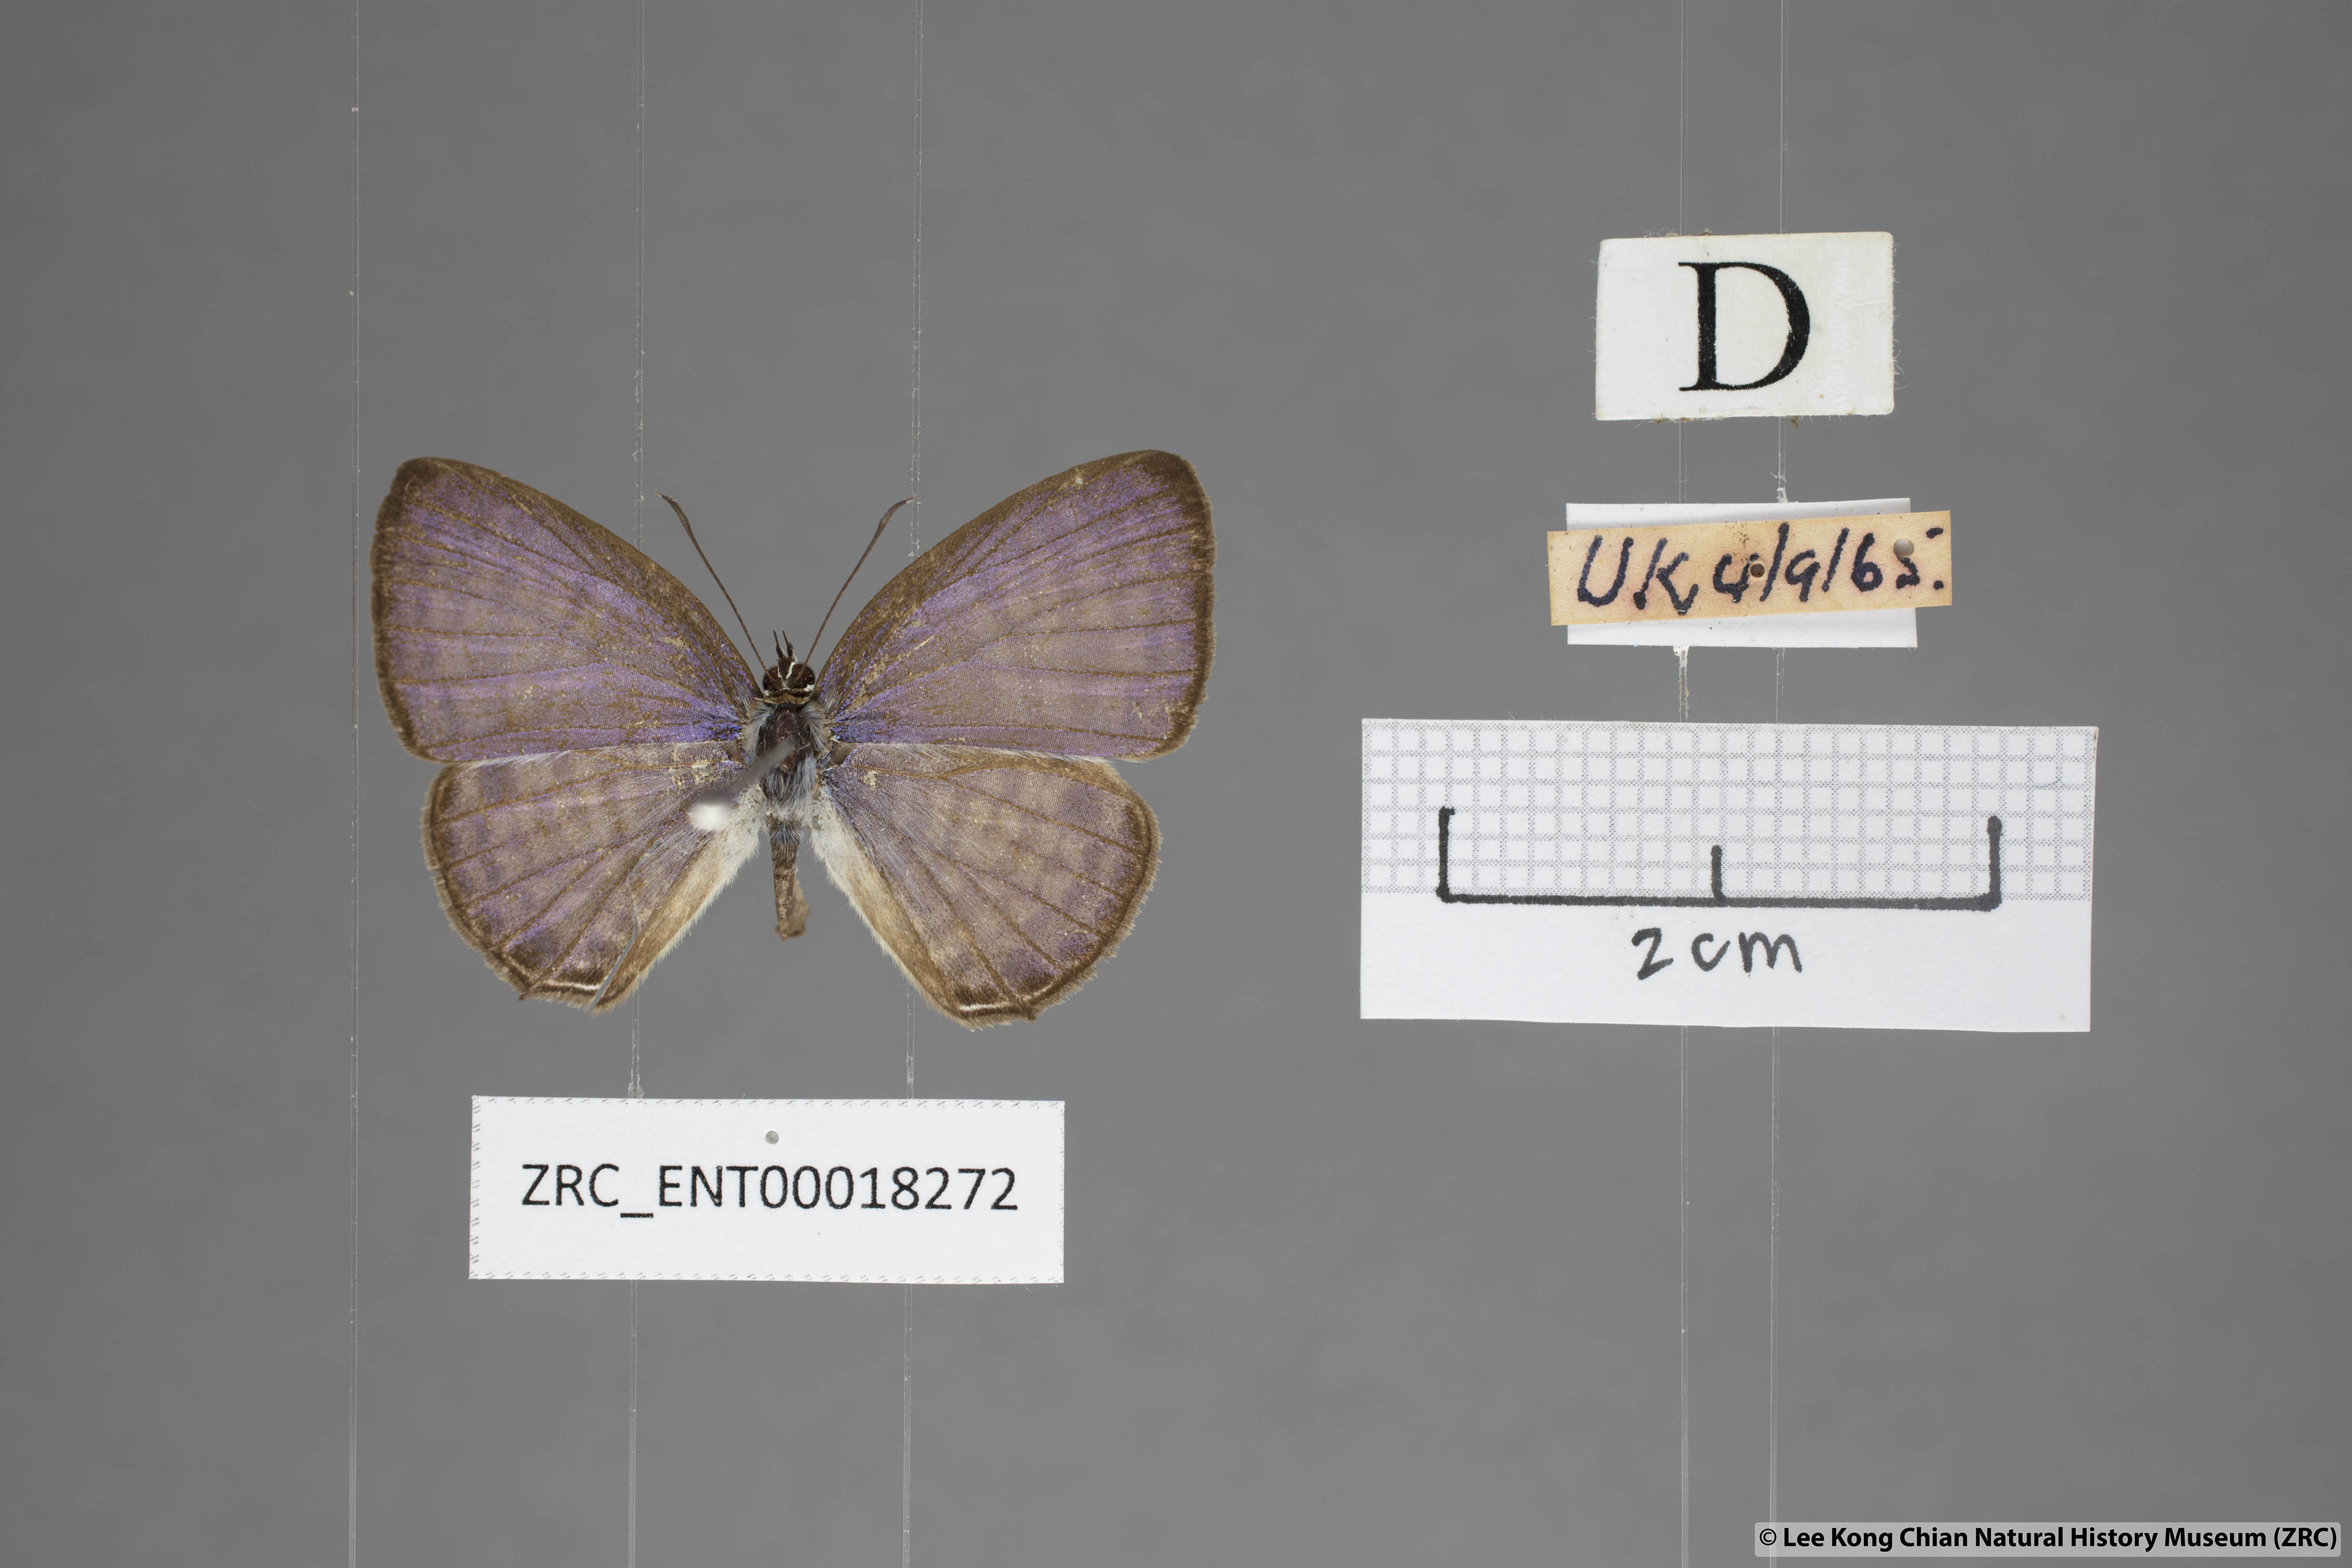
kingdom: Animalia
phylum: Arthropoda
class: Insecta
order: Lepidoptera
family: Lycaenidae
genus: Nacaduba
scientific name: Nacaduba angusta
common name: White four-line blue
